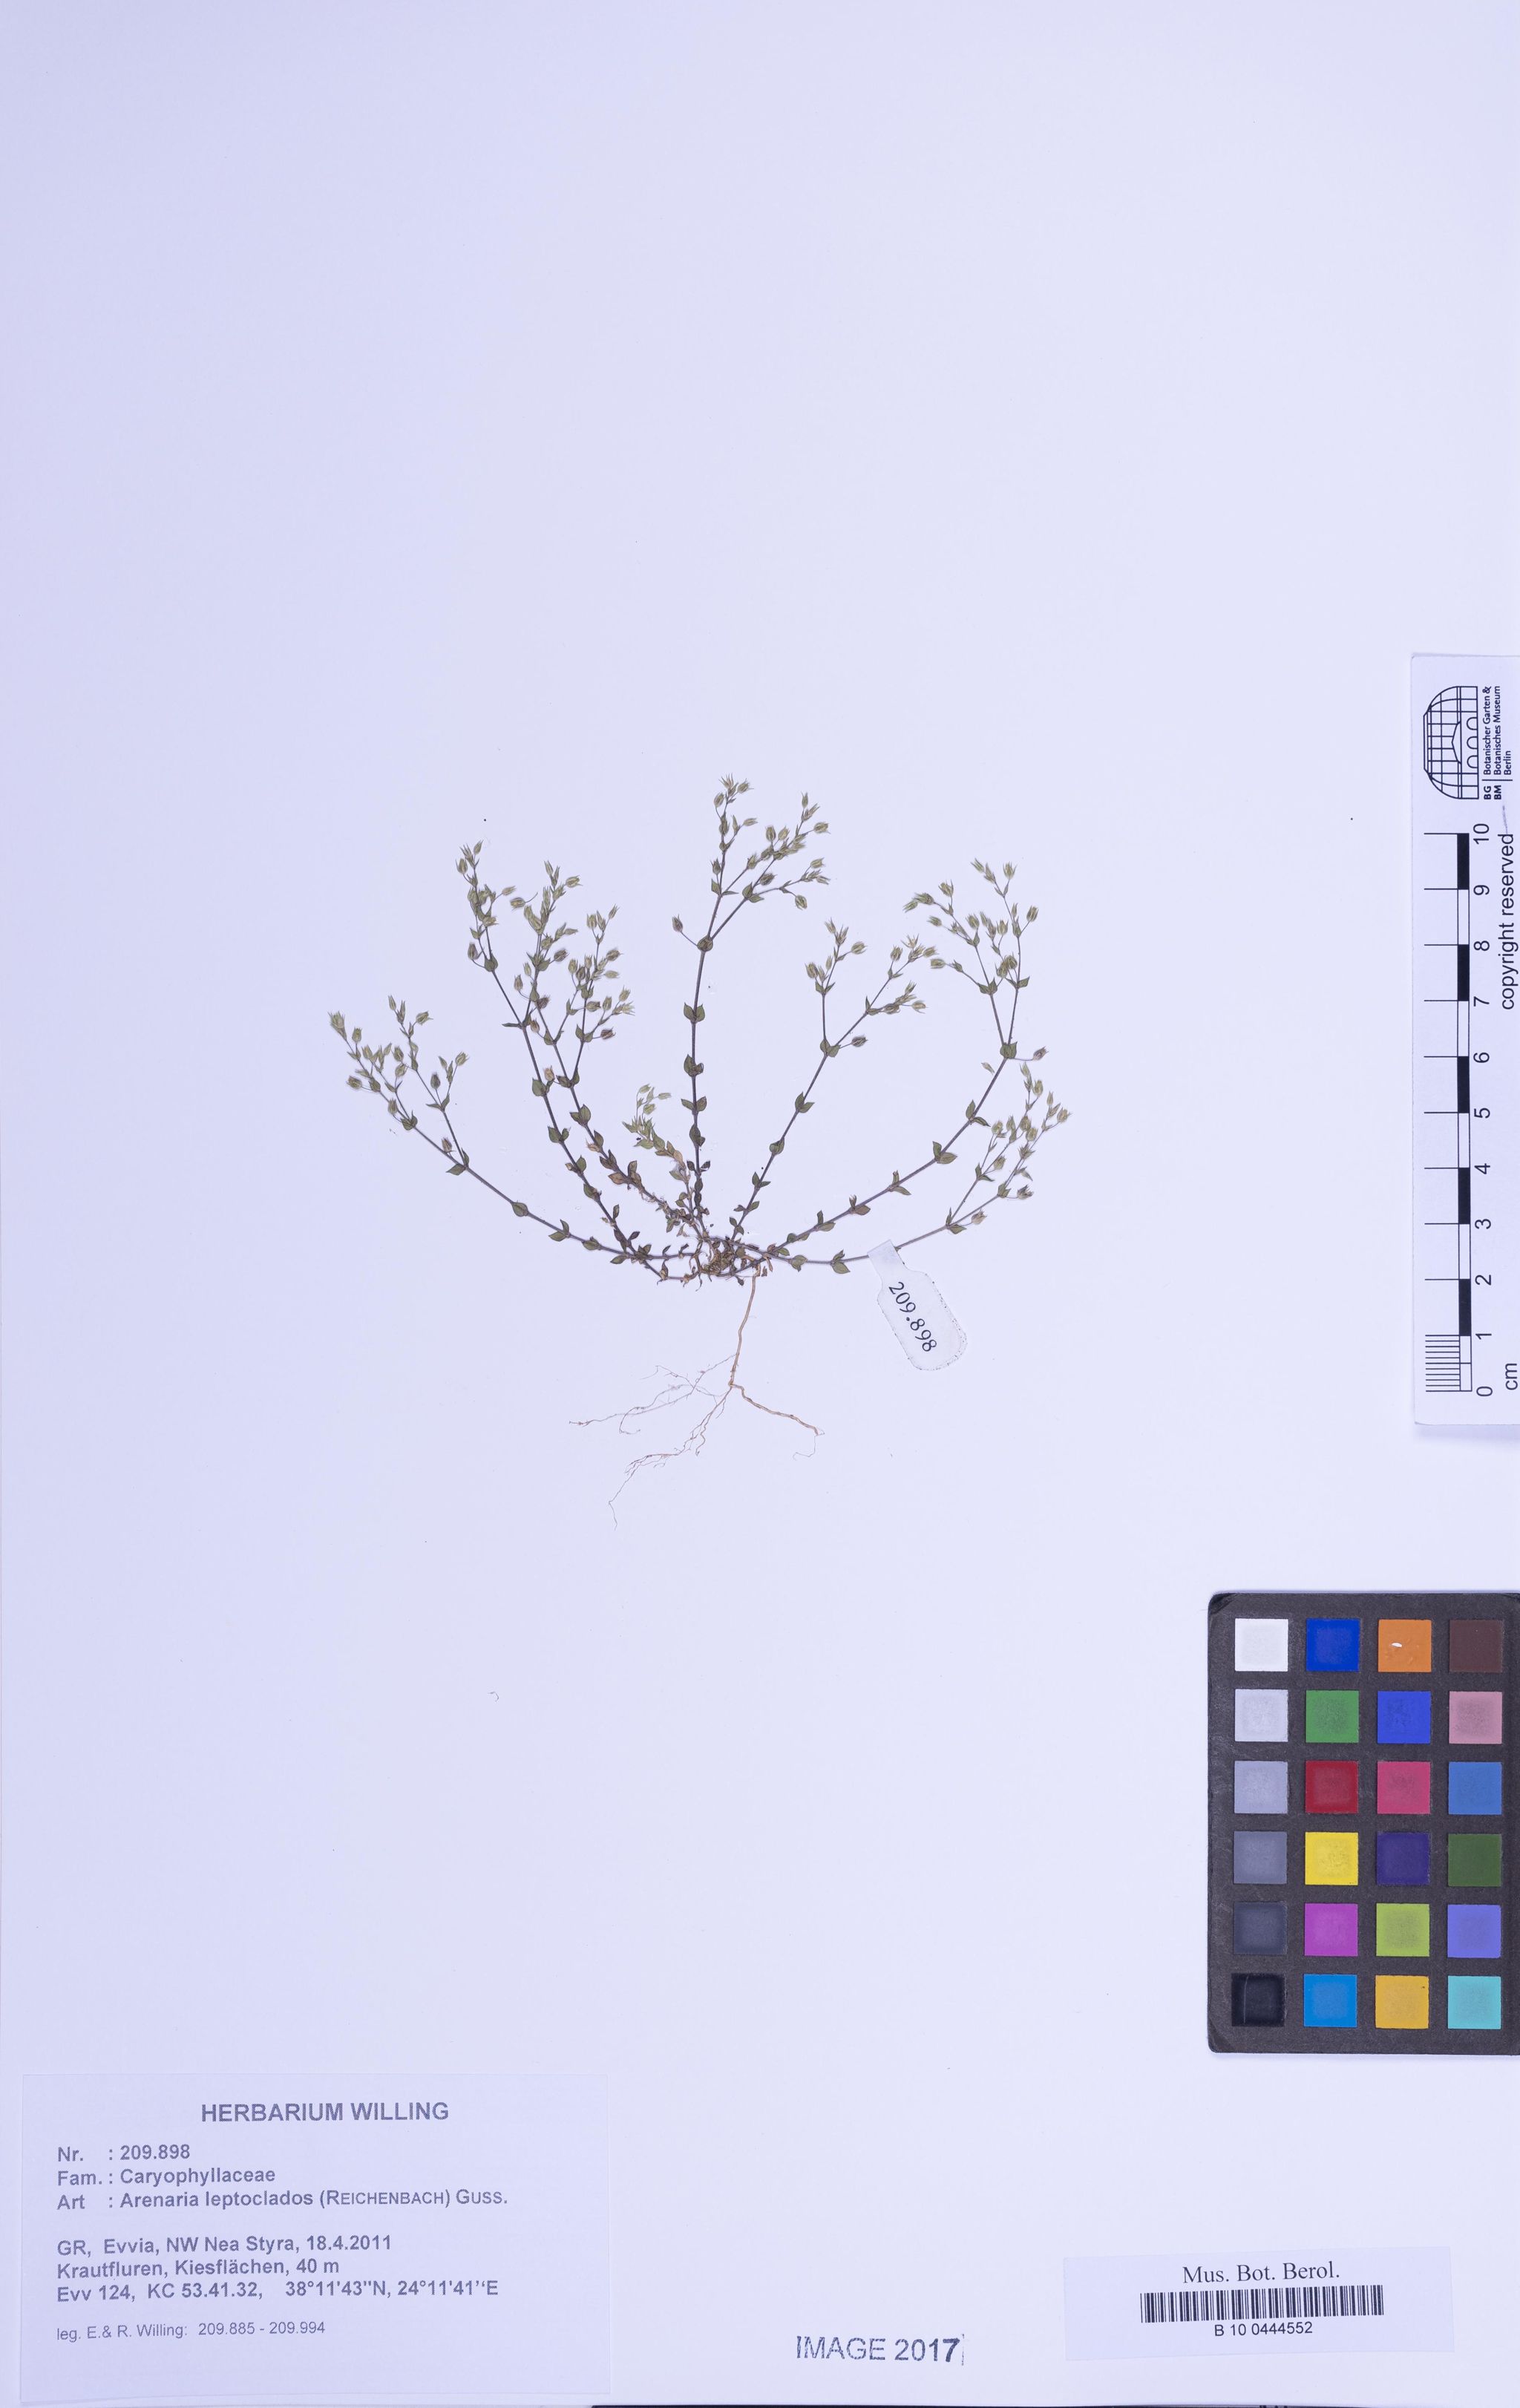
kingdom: Plantae
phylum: Tracheophyta
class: Magnoliopsida
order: Caryophyllales
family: Caryophyllaceae
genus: Arenaria
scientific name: Arenaria leptoclados
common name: Thyme-leaved sandwort
